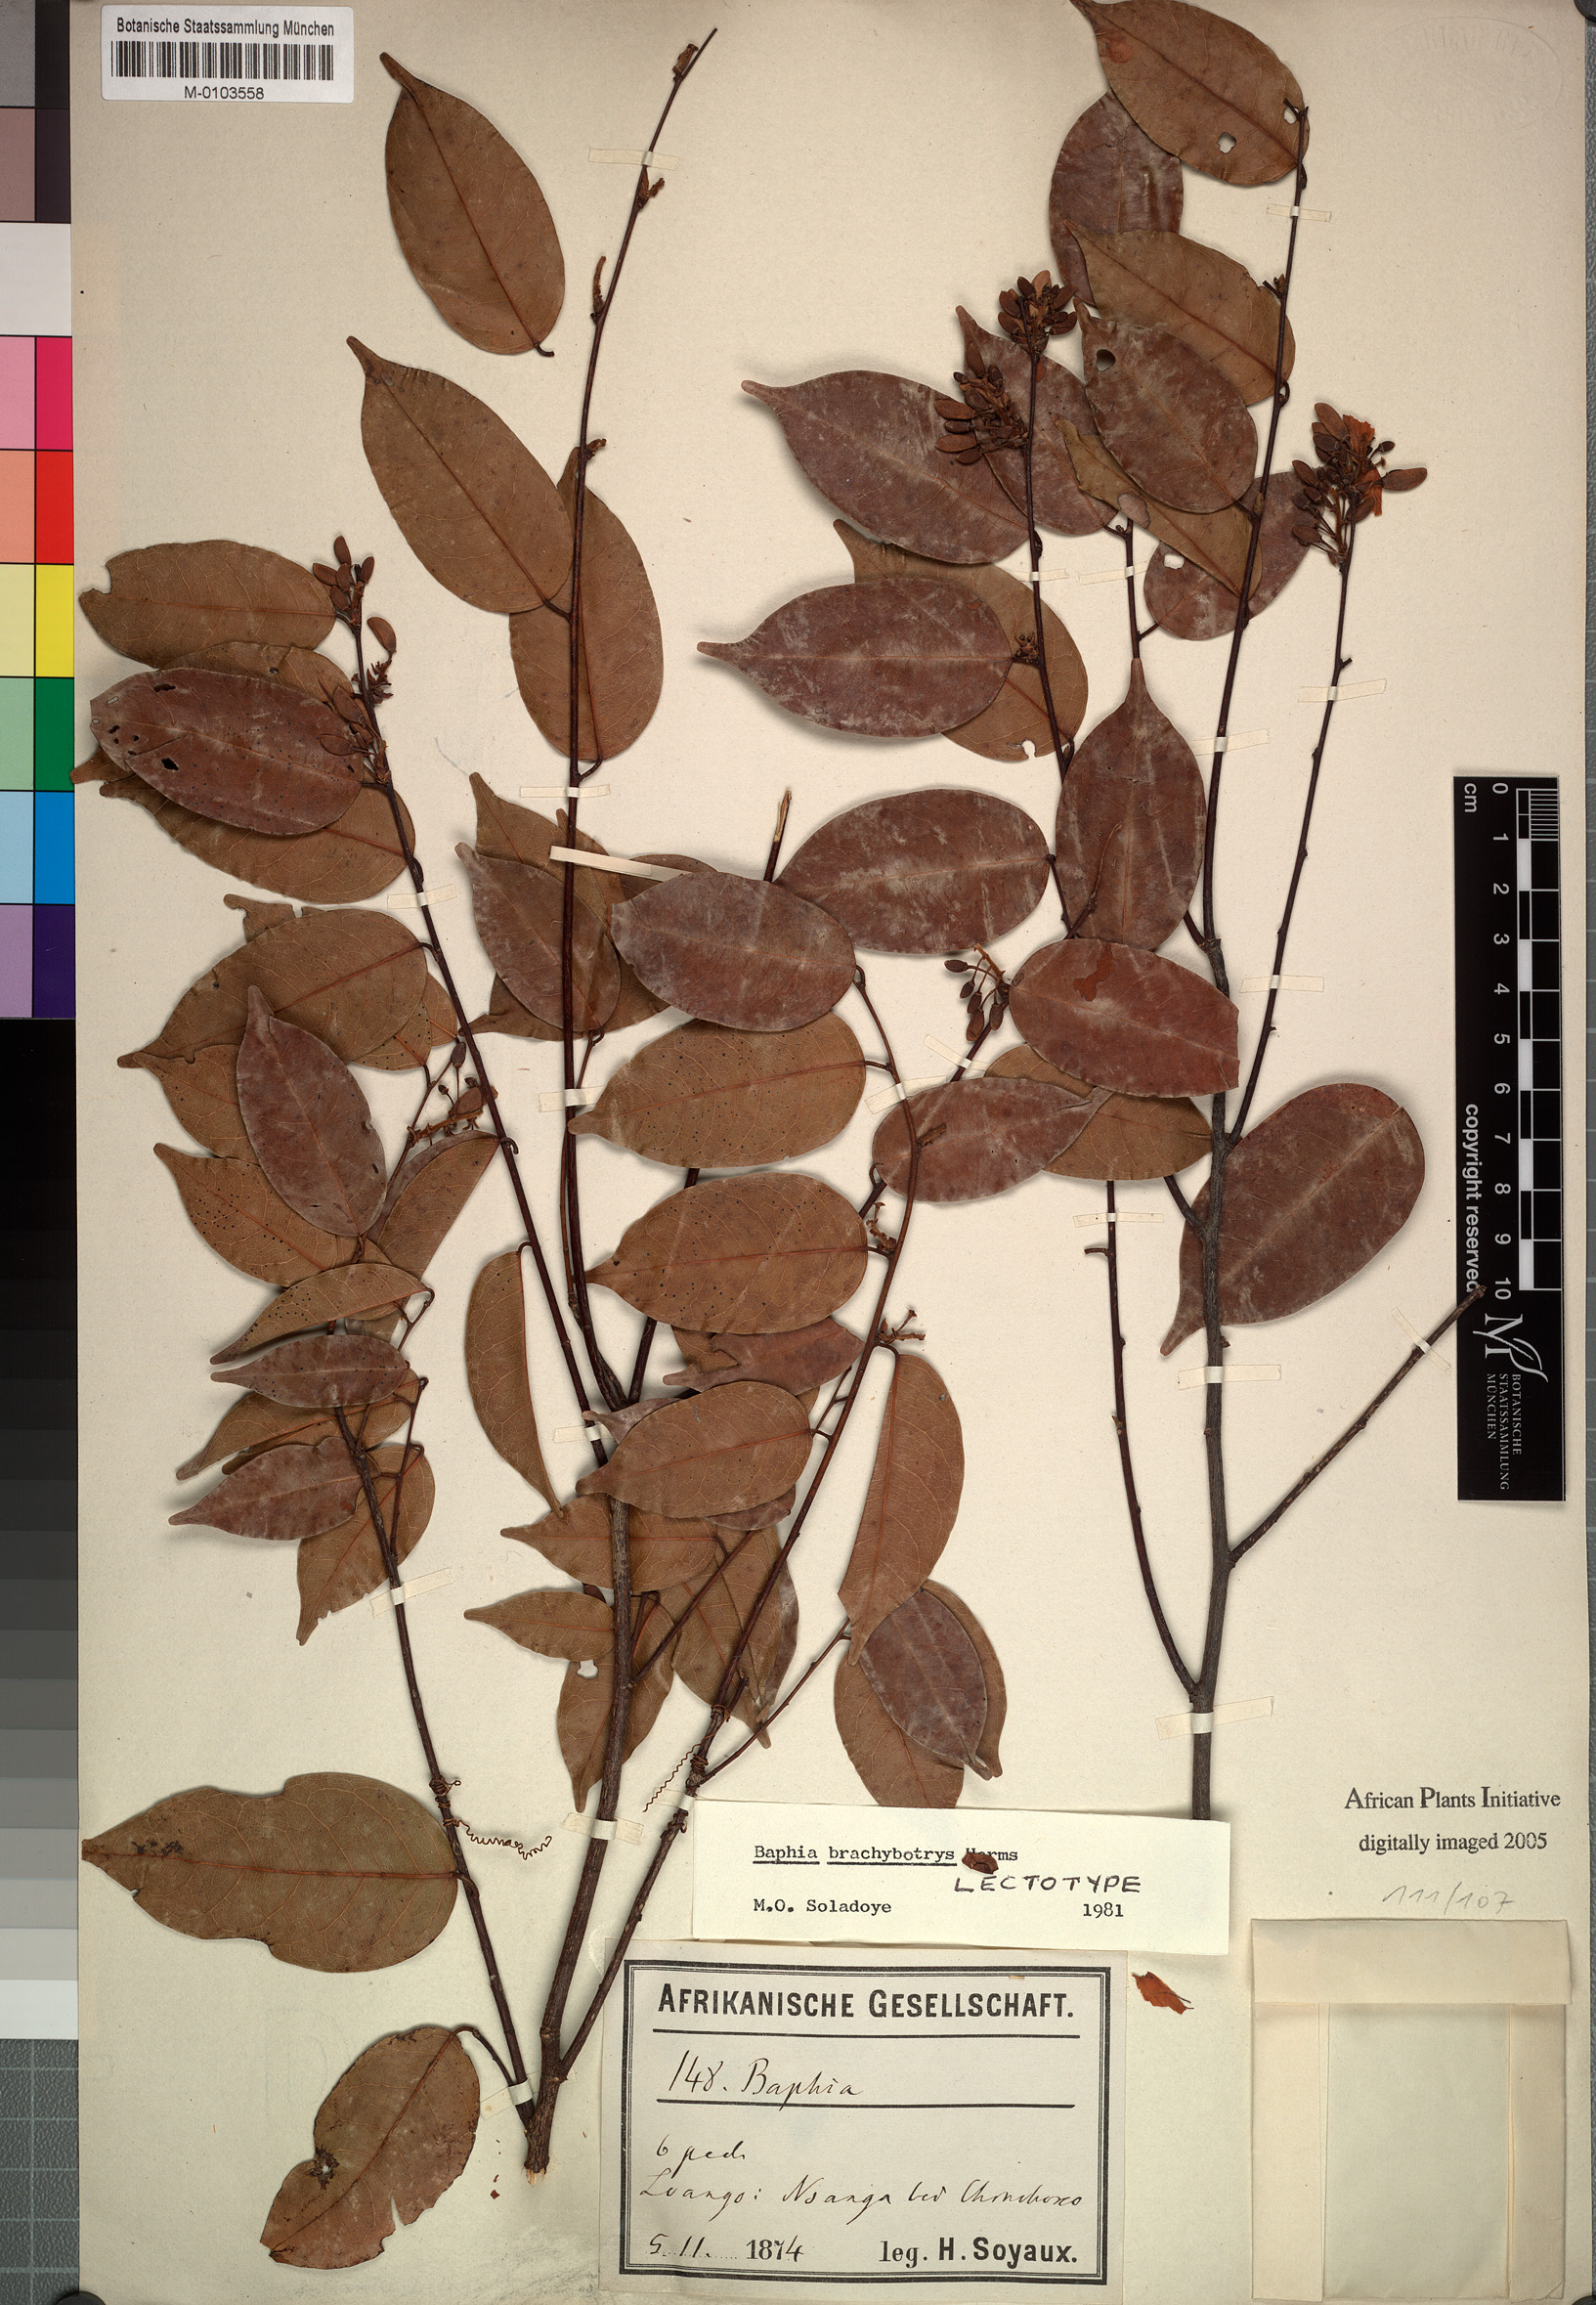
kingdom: Plantae
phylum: Tracheophyta
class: Magnoliopsida
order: Fabales
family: Fabaceae
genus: Baphia
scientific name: Baphia brachybotrys
